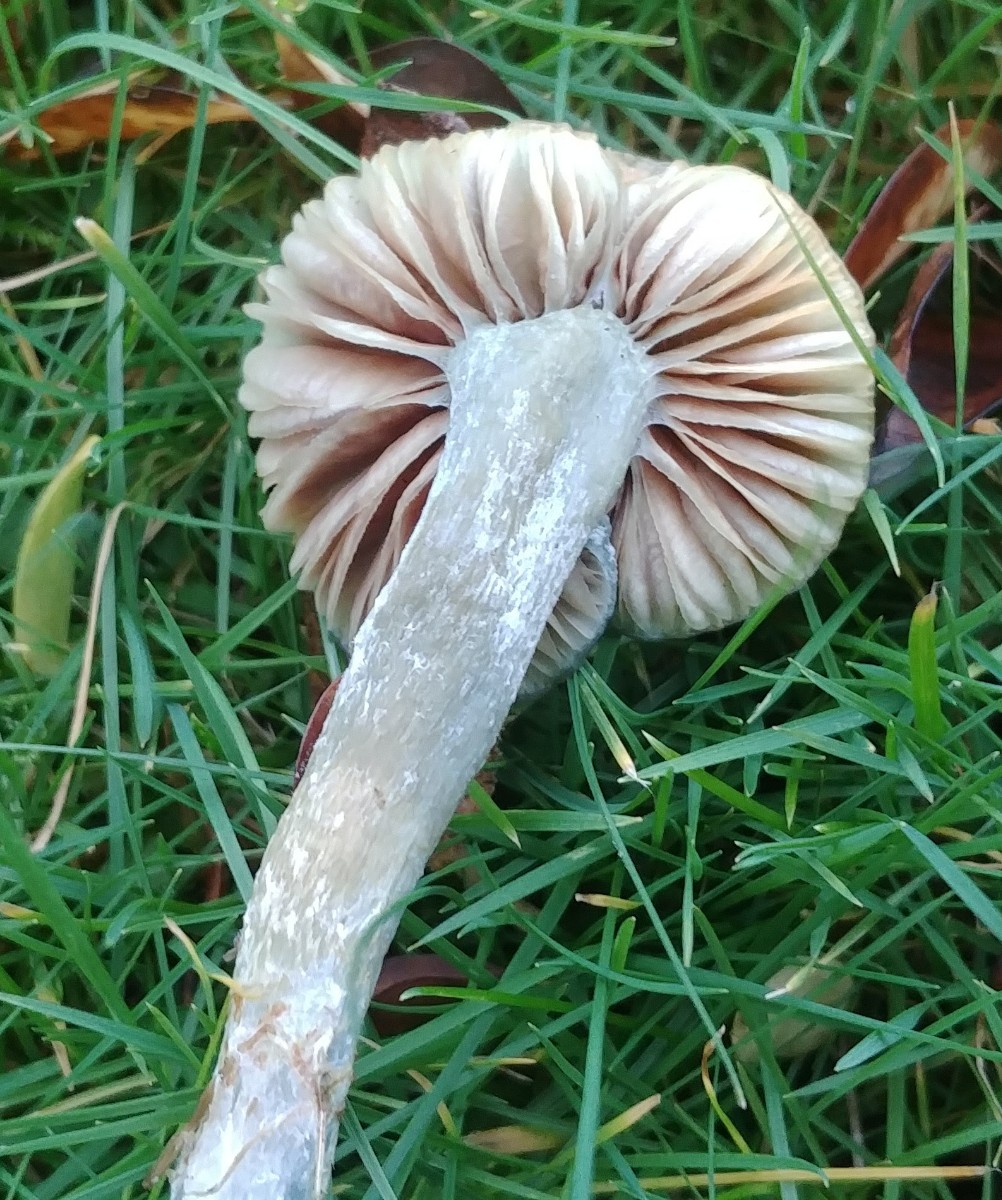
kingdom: Fungi
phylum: Basidiomycota
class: Agaricomycetes
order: Agaricales
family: Strophariaceae
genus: Stropharia
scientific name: Stropharia cyanea
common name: blågrøn bredblad
